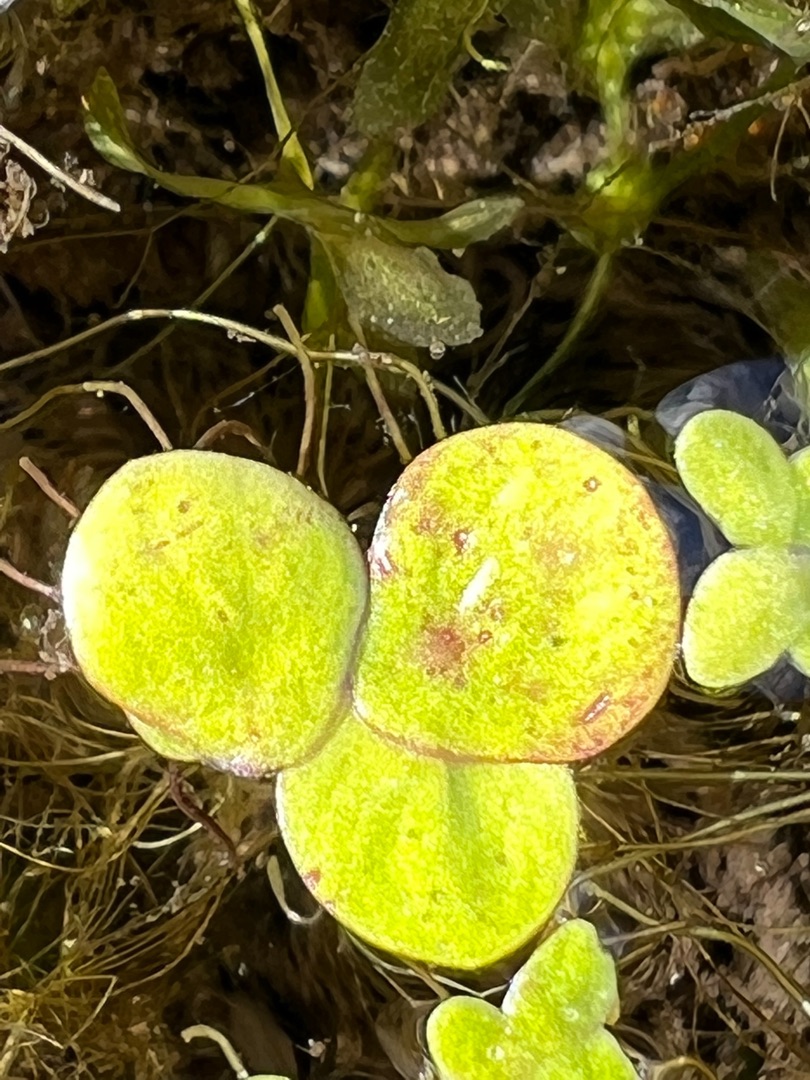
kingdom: Plantae
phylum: Tracheophyta
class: Liliopsida
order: Alismatales
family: Araceae
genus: Spirodela
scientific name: Spirodela polyrhiza
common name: Stor andemad
